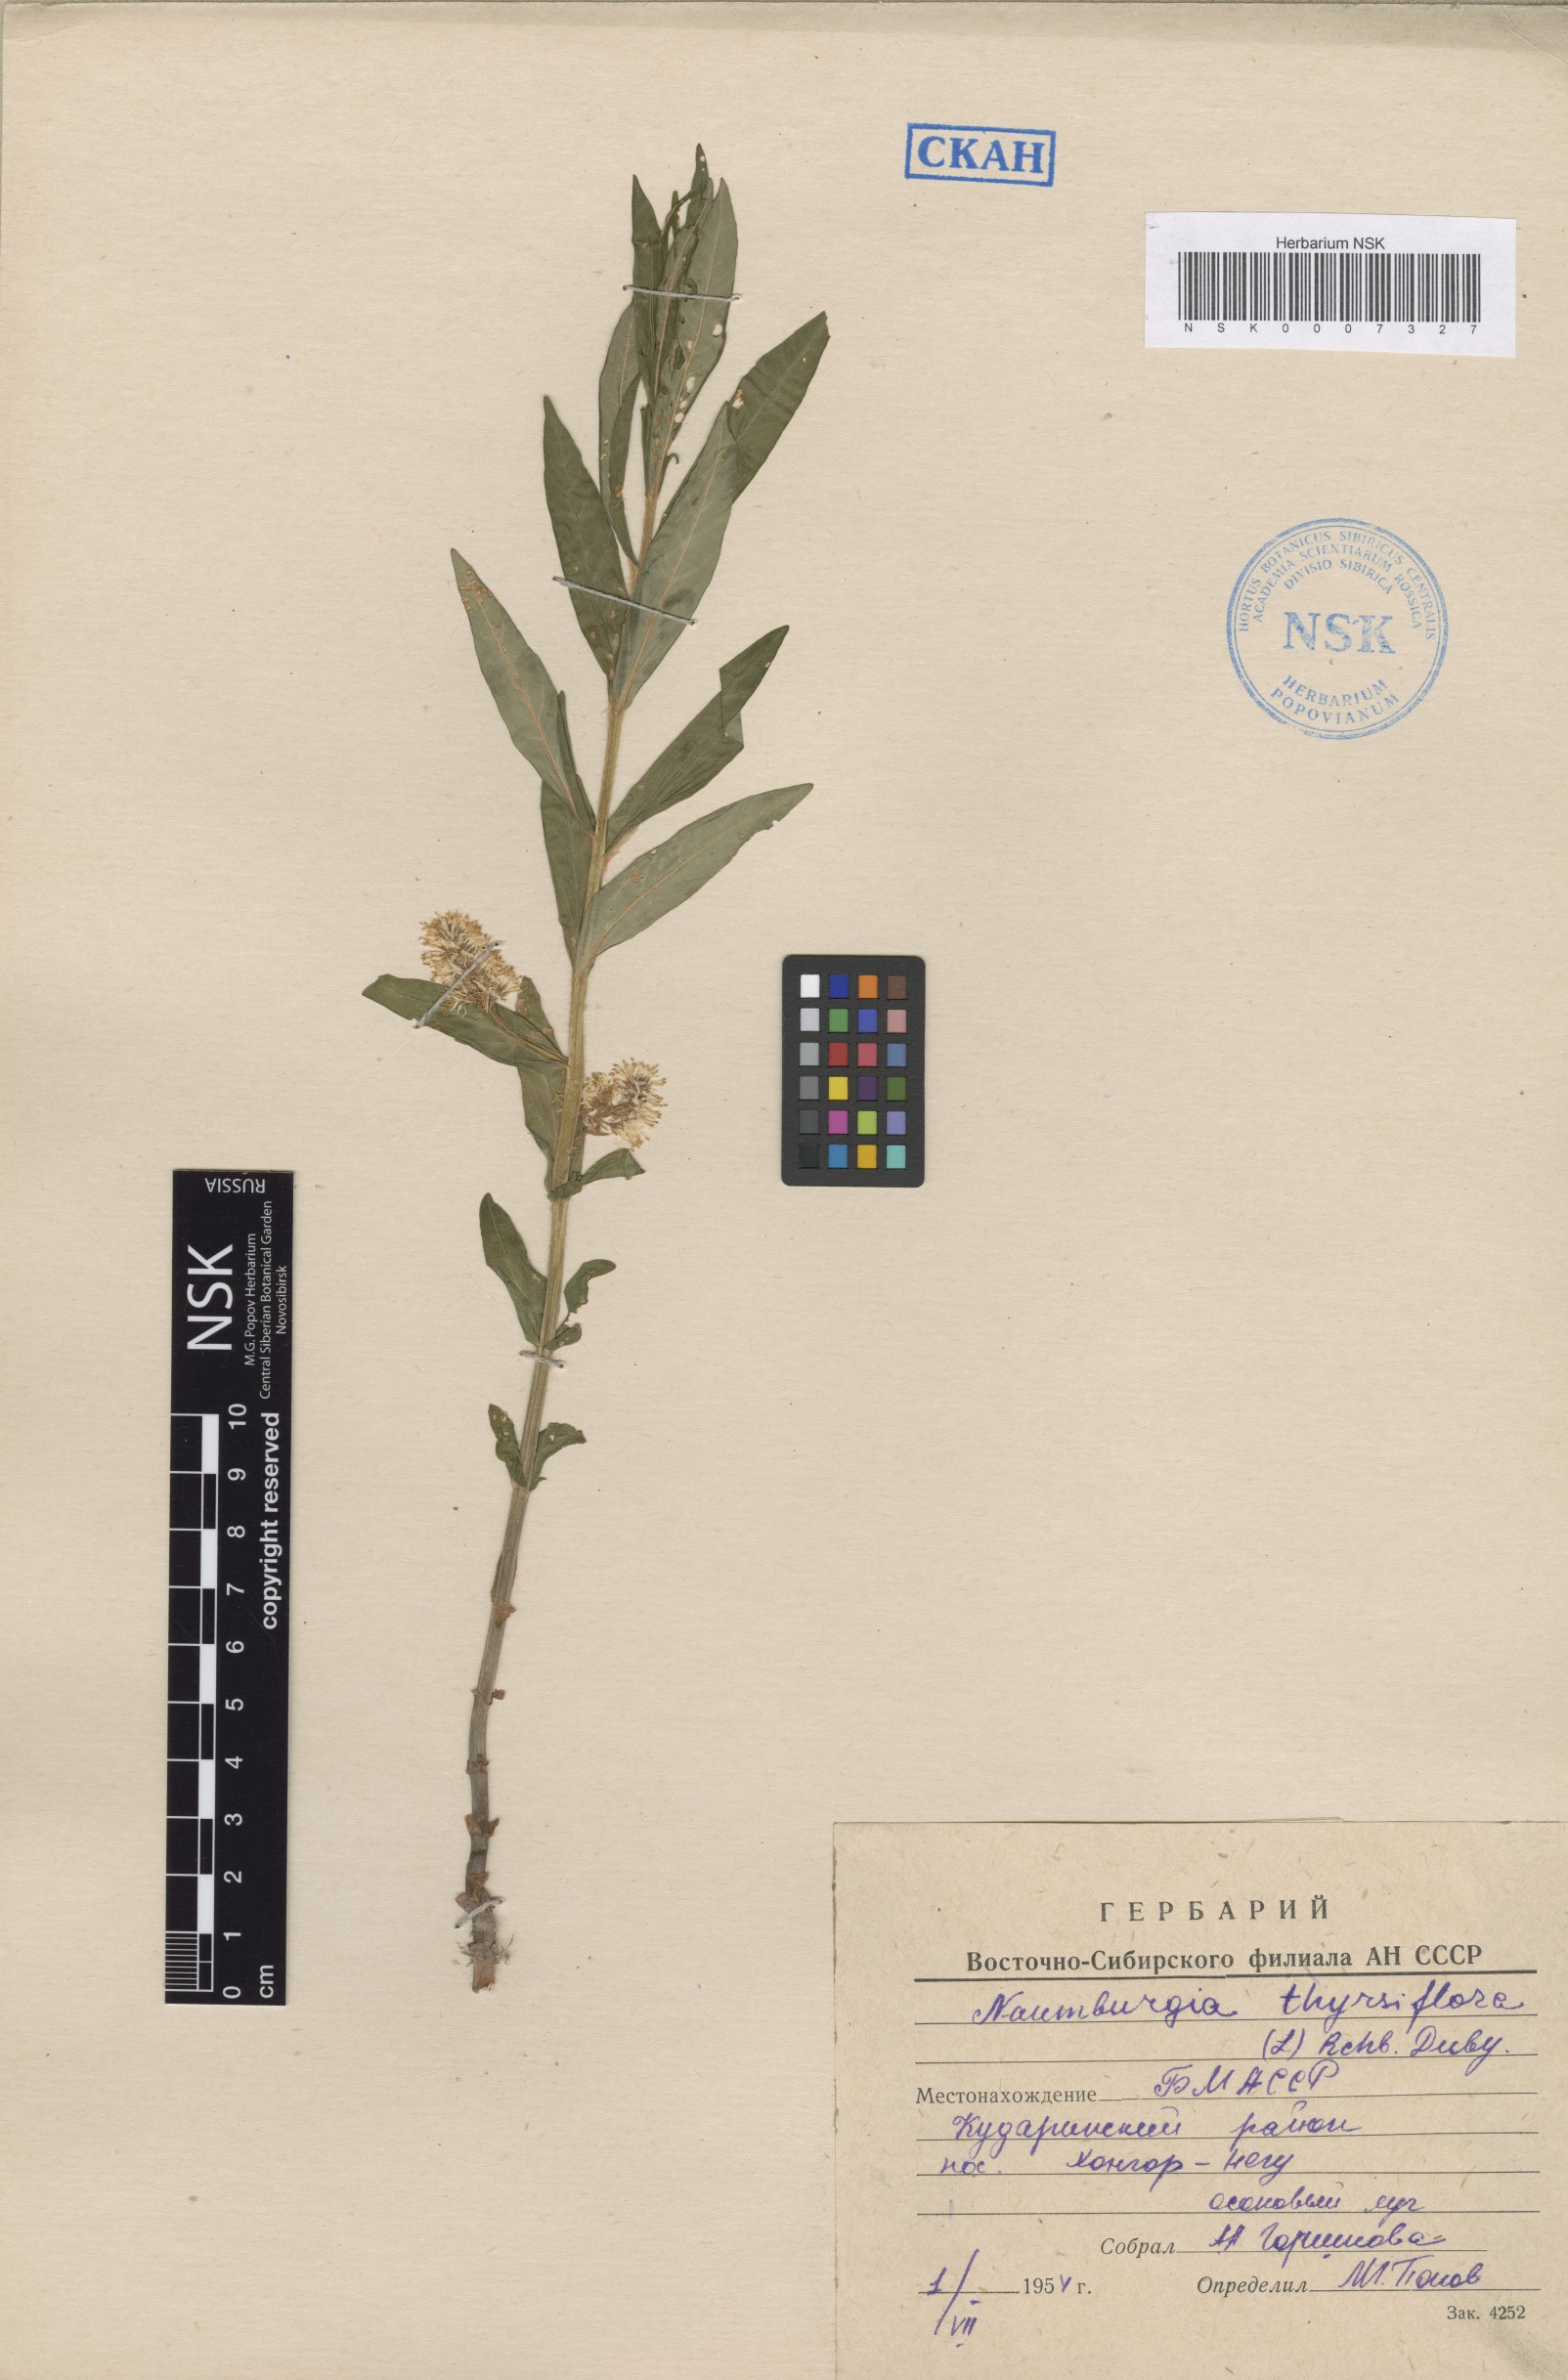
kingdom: Plantae
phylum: Tracheophyta
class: Magnoliopsida
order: Ericales
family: Primulaceae
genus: Lysimachia
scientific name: Lysimachia thyrsiflora
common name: Tufted loosestrife
